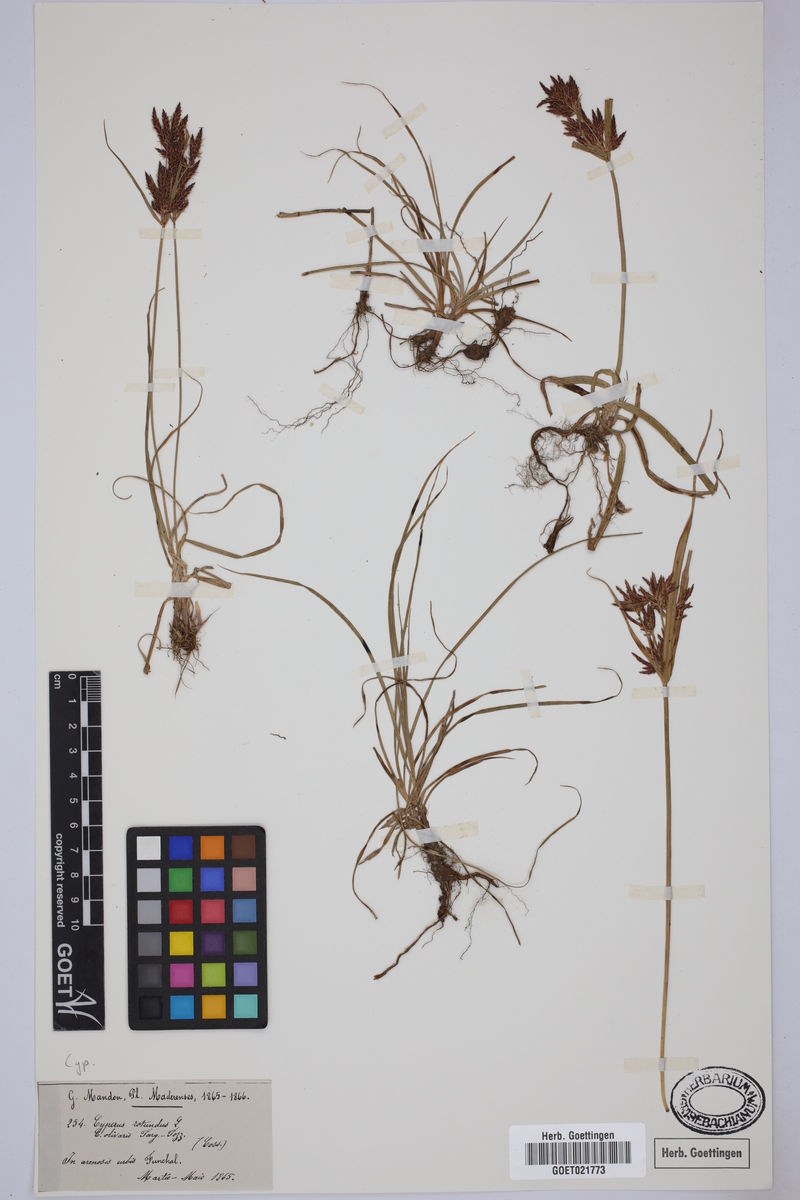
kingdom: Plantae
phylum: Tracheophyta
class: Liliopsida
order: Poales
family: Cyperaceae
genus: Cyperus
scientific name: Cyperus rotundus
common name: Nutgrass
